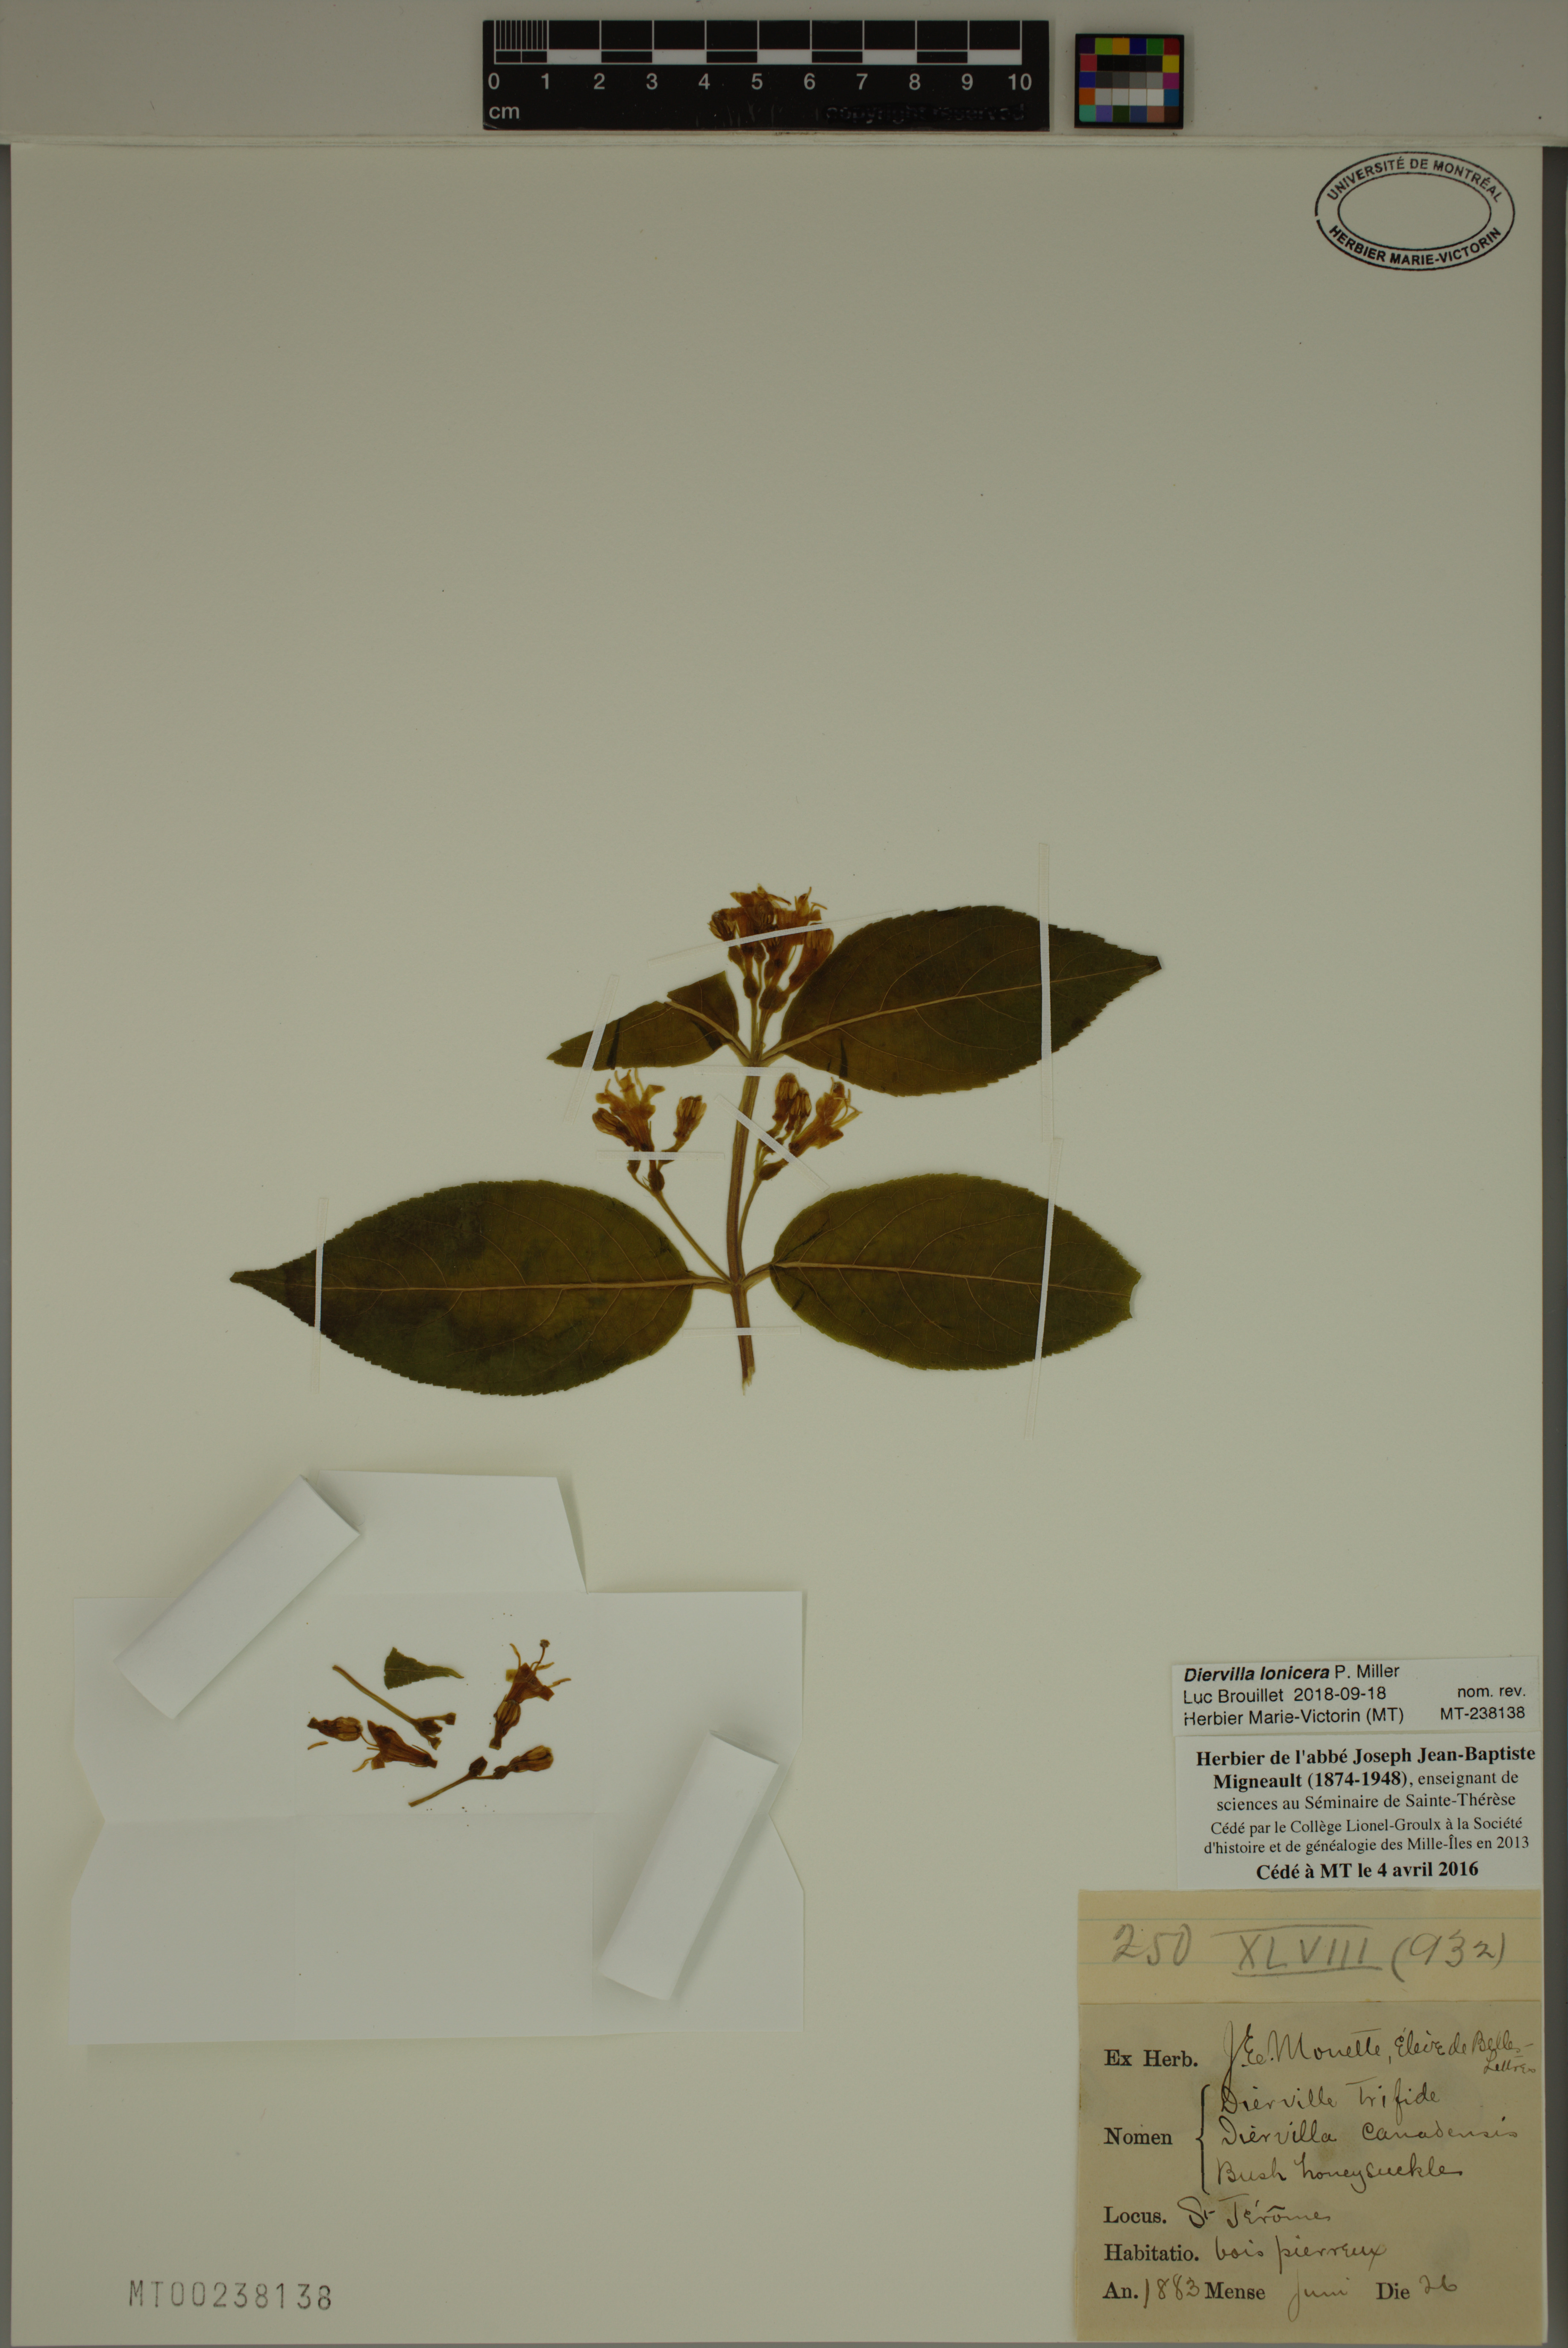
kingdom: Plantae
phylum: Tracheophyta
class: Magnoliopsida
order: Dipsacales
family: Caprifoliaceae
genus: Diervilla
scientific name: Diervilla lonicera
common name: Bush-honeysuckle
